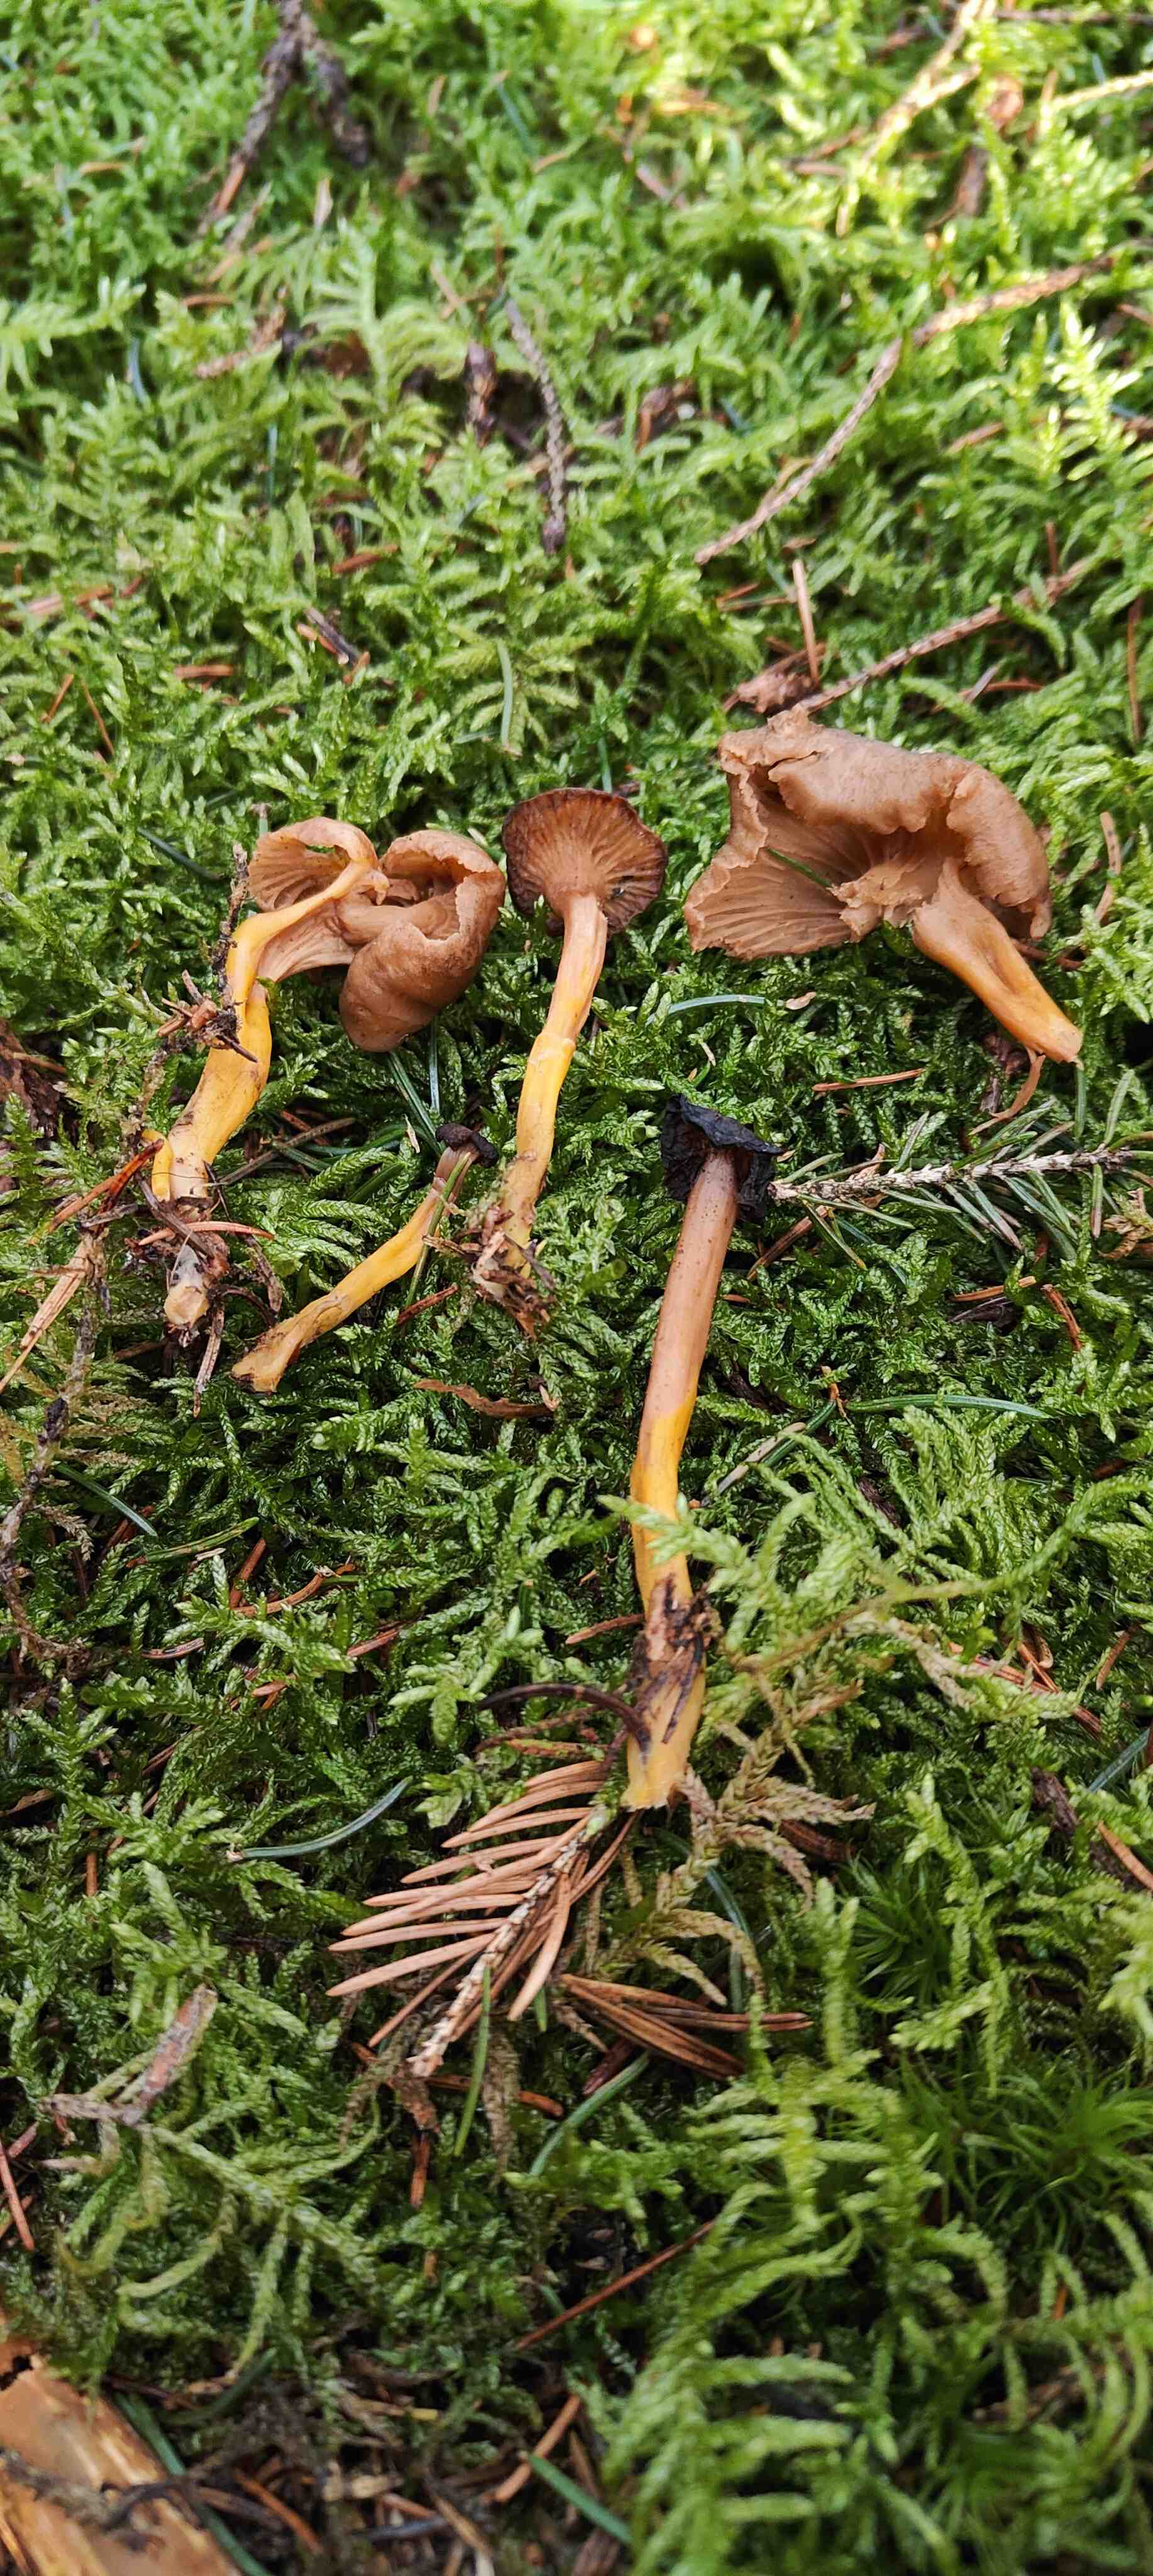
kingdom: Fungi
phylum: Basidiomycota
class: Agaricomycetes
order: Cantharellales
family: Hydnaceae
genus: Craterellus
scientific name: Craterellus tubaeformis
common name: tragt-kantarel
